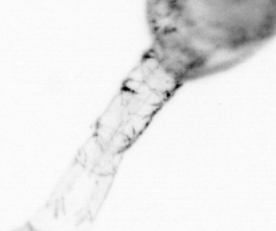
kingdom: Animalia
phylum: Arthropoda
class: Copepoda
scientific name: Copepoda
